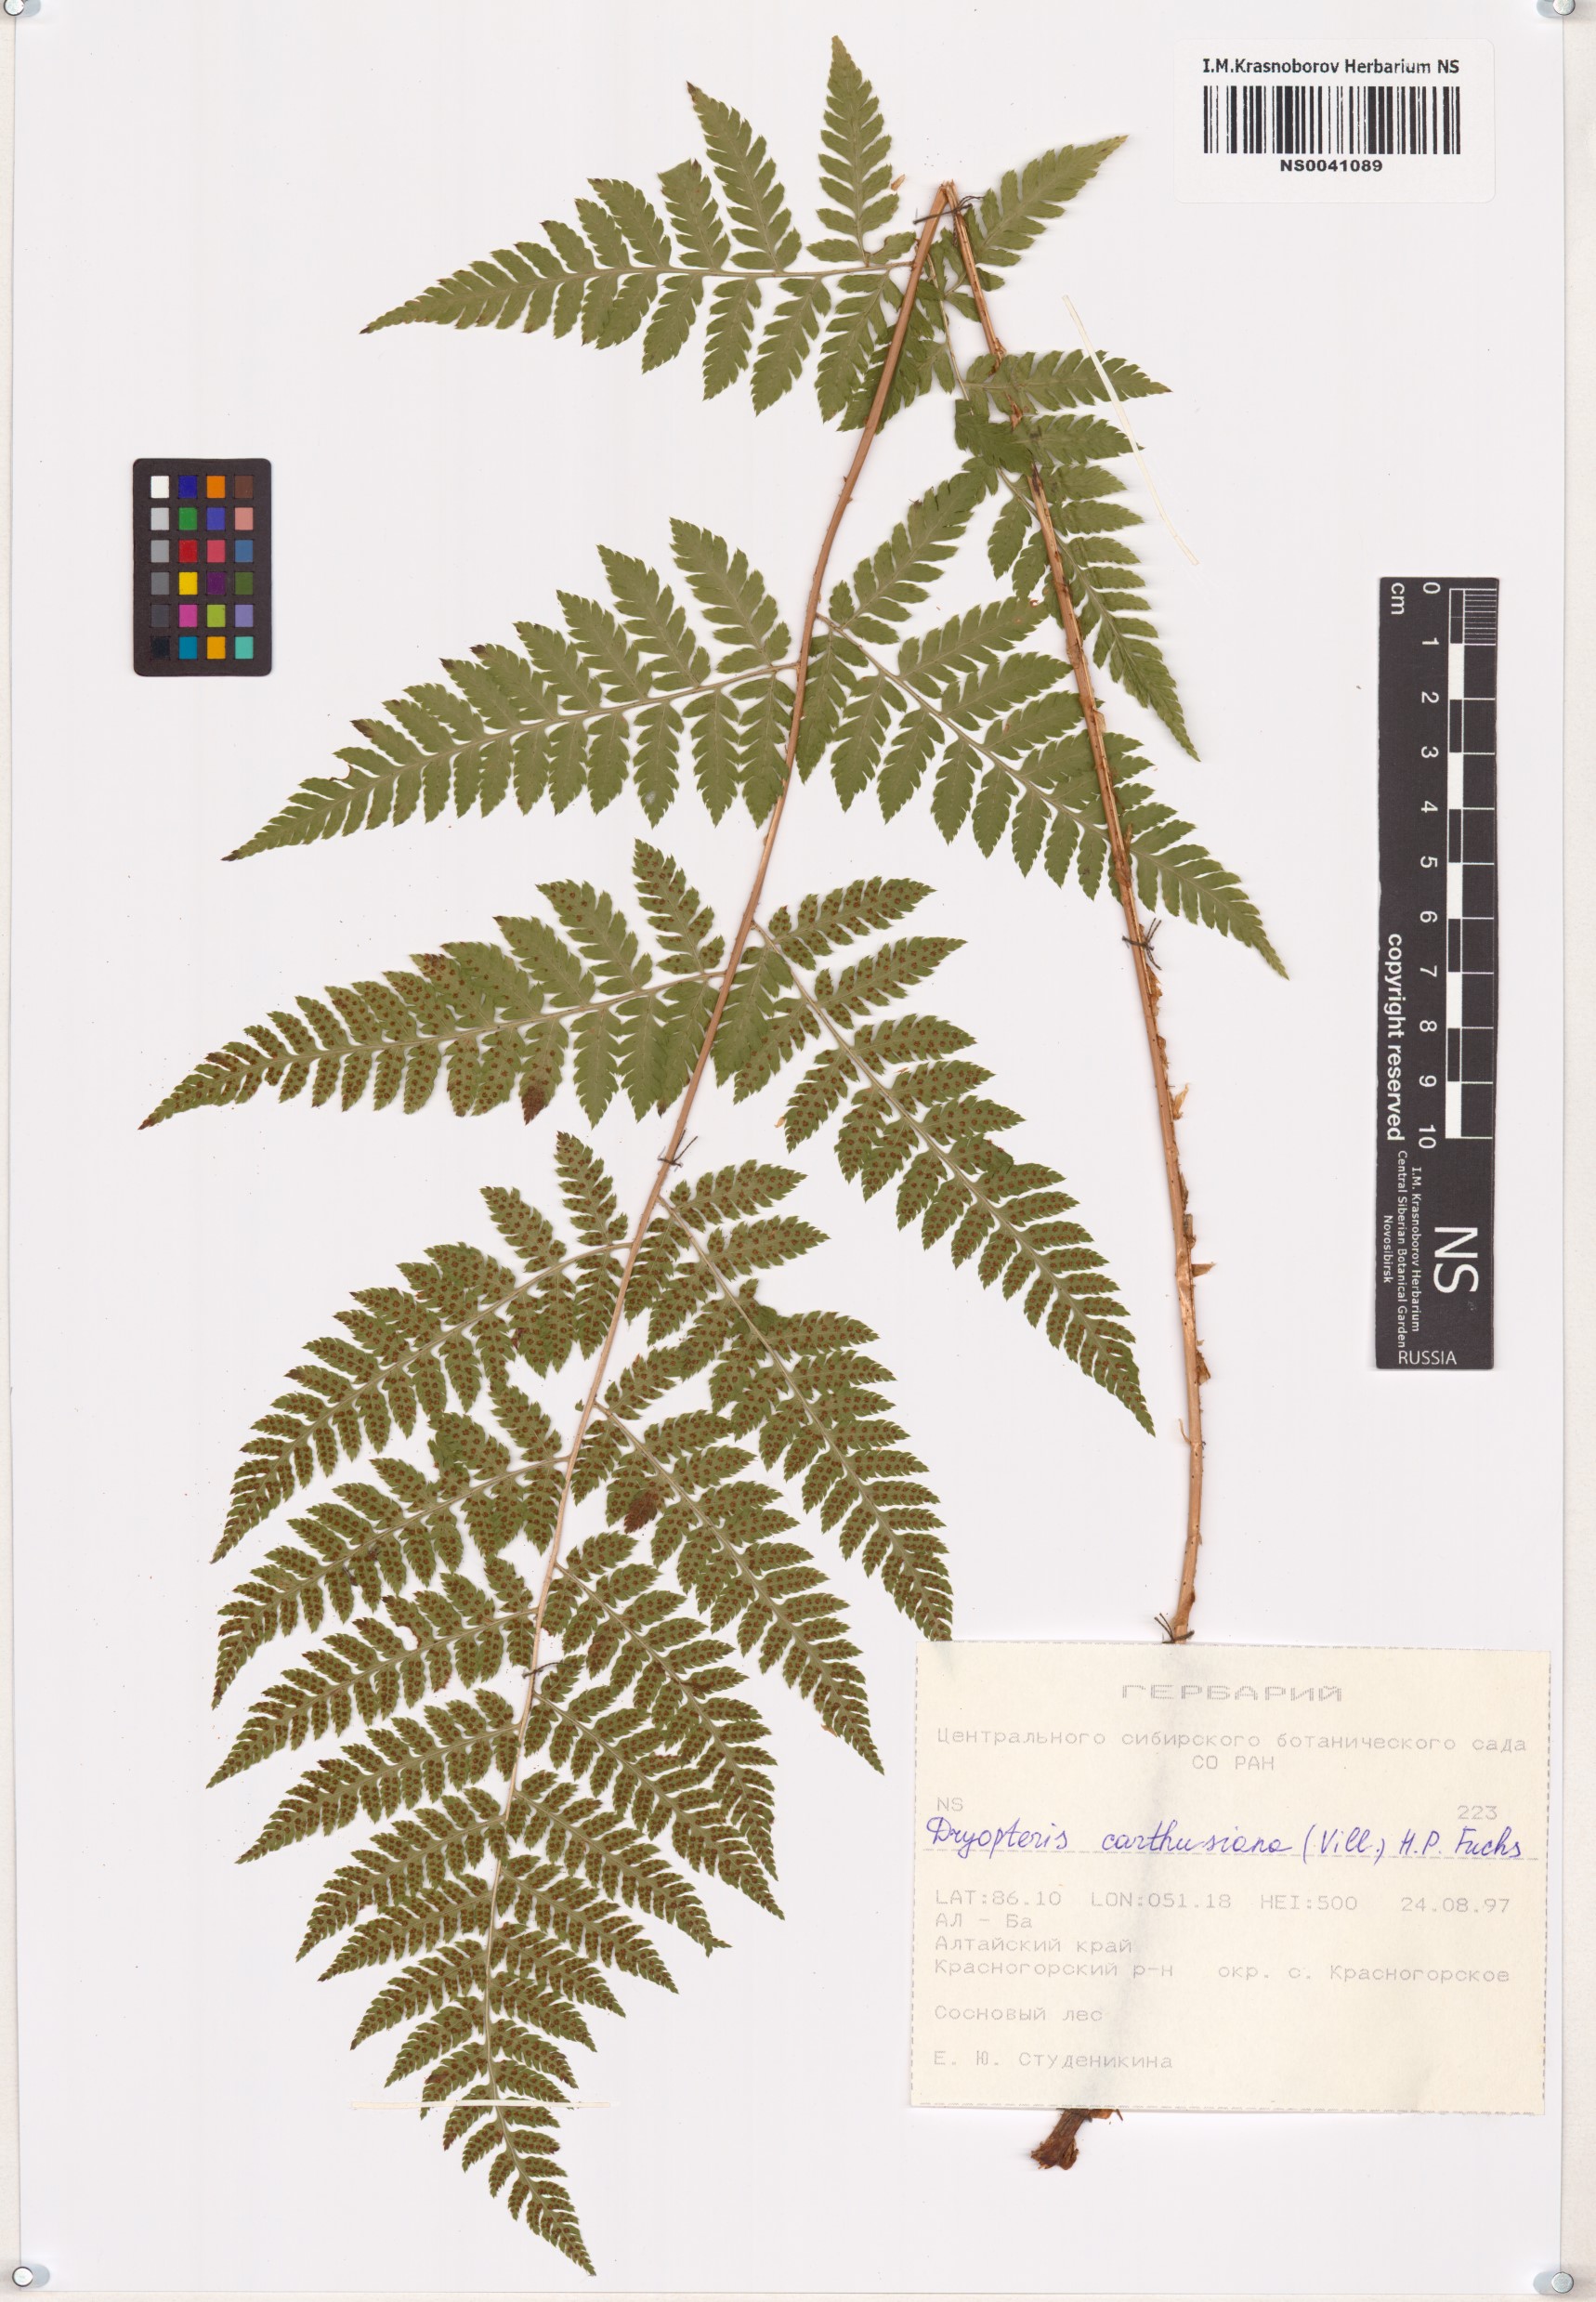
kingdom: Plantae
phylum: Tracheophyta
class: Polypodiopsida
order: Polypodiales
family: Dryopteridaceae
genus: Dryopteris
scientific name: Dryopteris carthusiana
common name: Narrow buckler-fern
